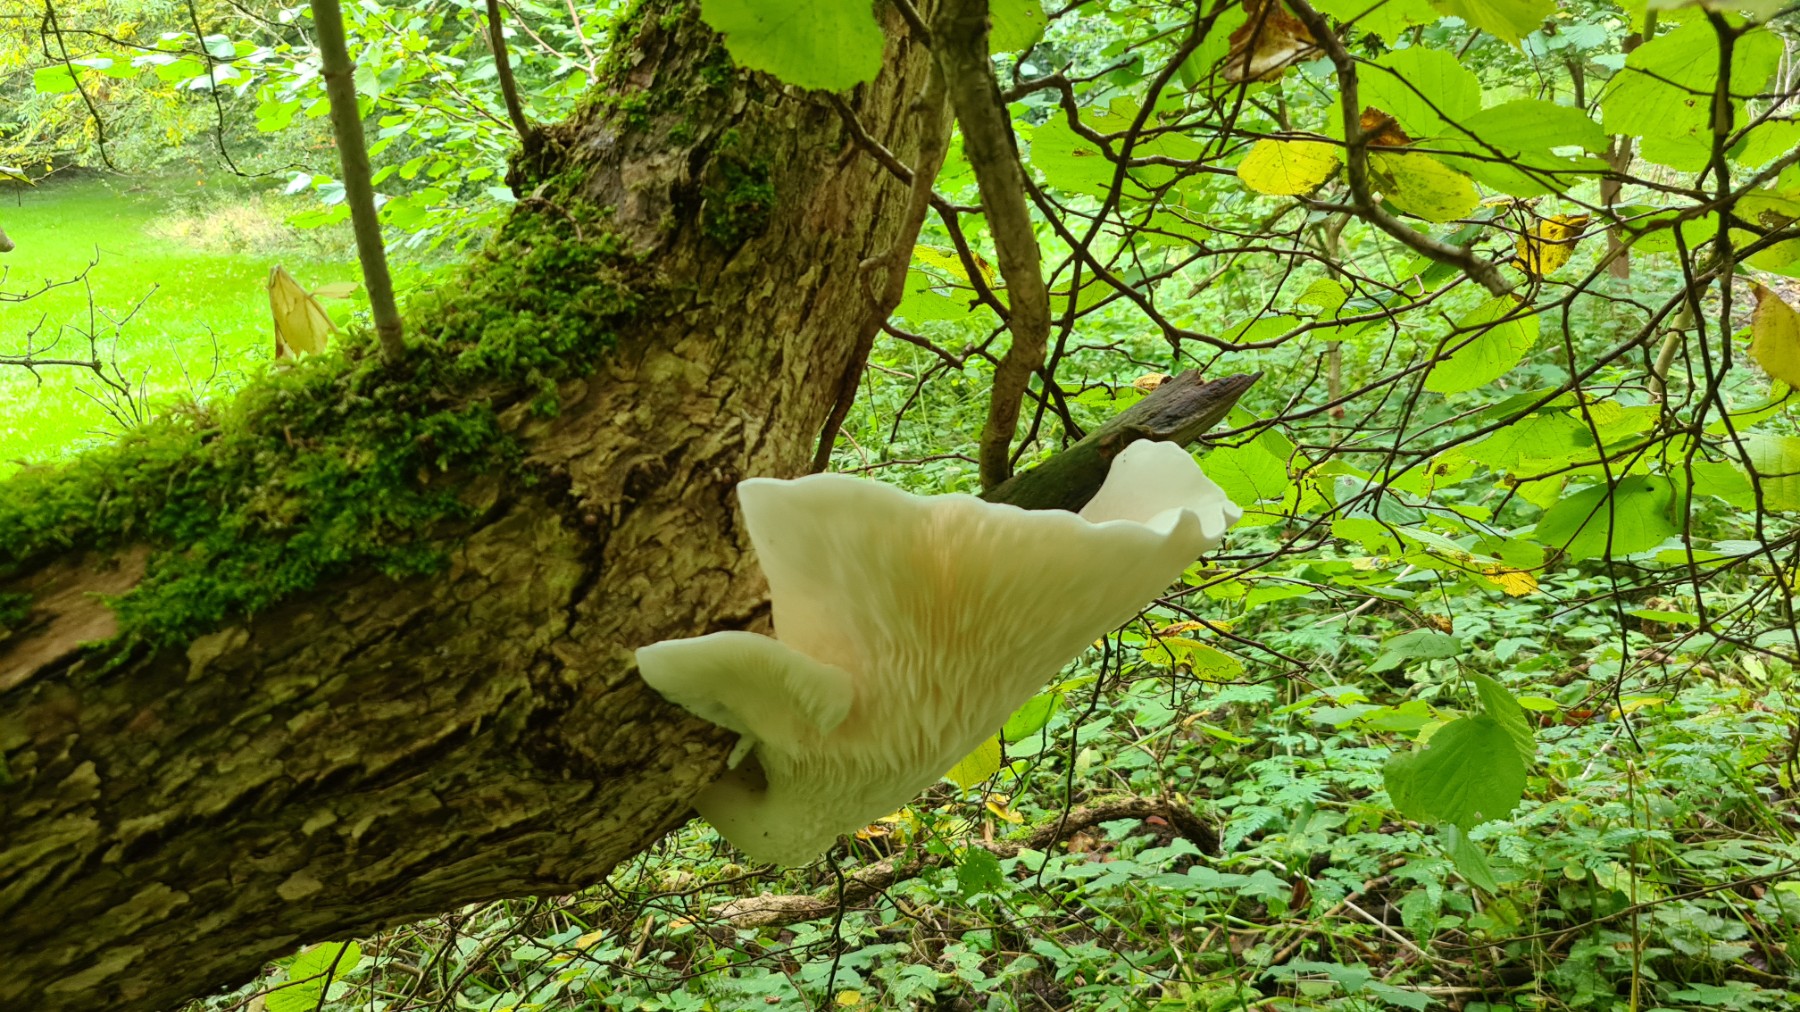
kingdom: Fungi
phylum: Basidiomycota
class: Agaricomycetes
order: Agaricales
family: Pleurotaceae
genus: Pleurotus
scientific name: Pleurotus dryinus
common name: korkagtig østershat
